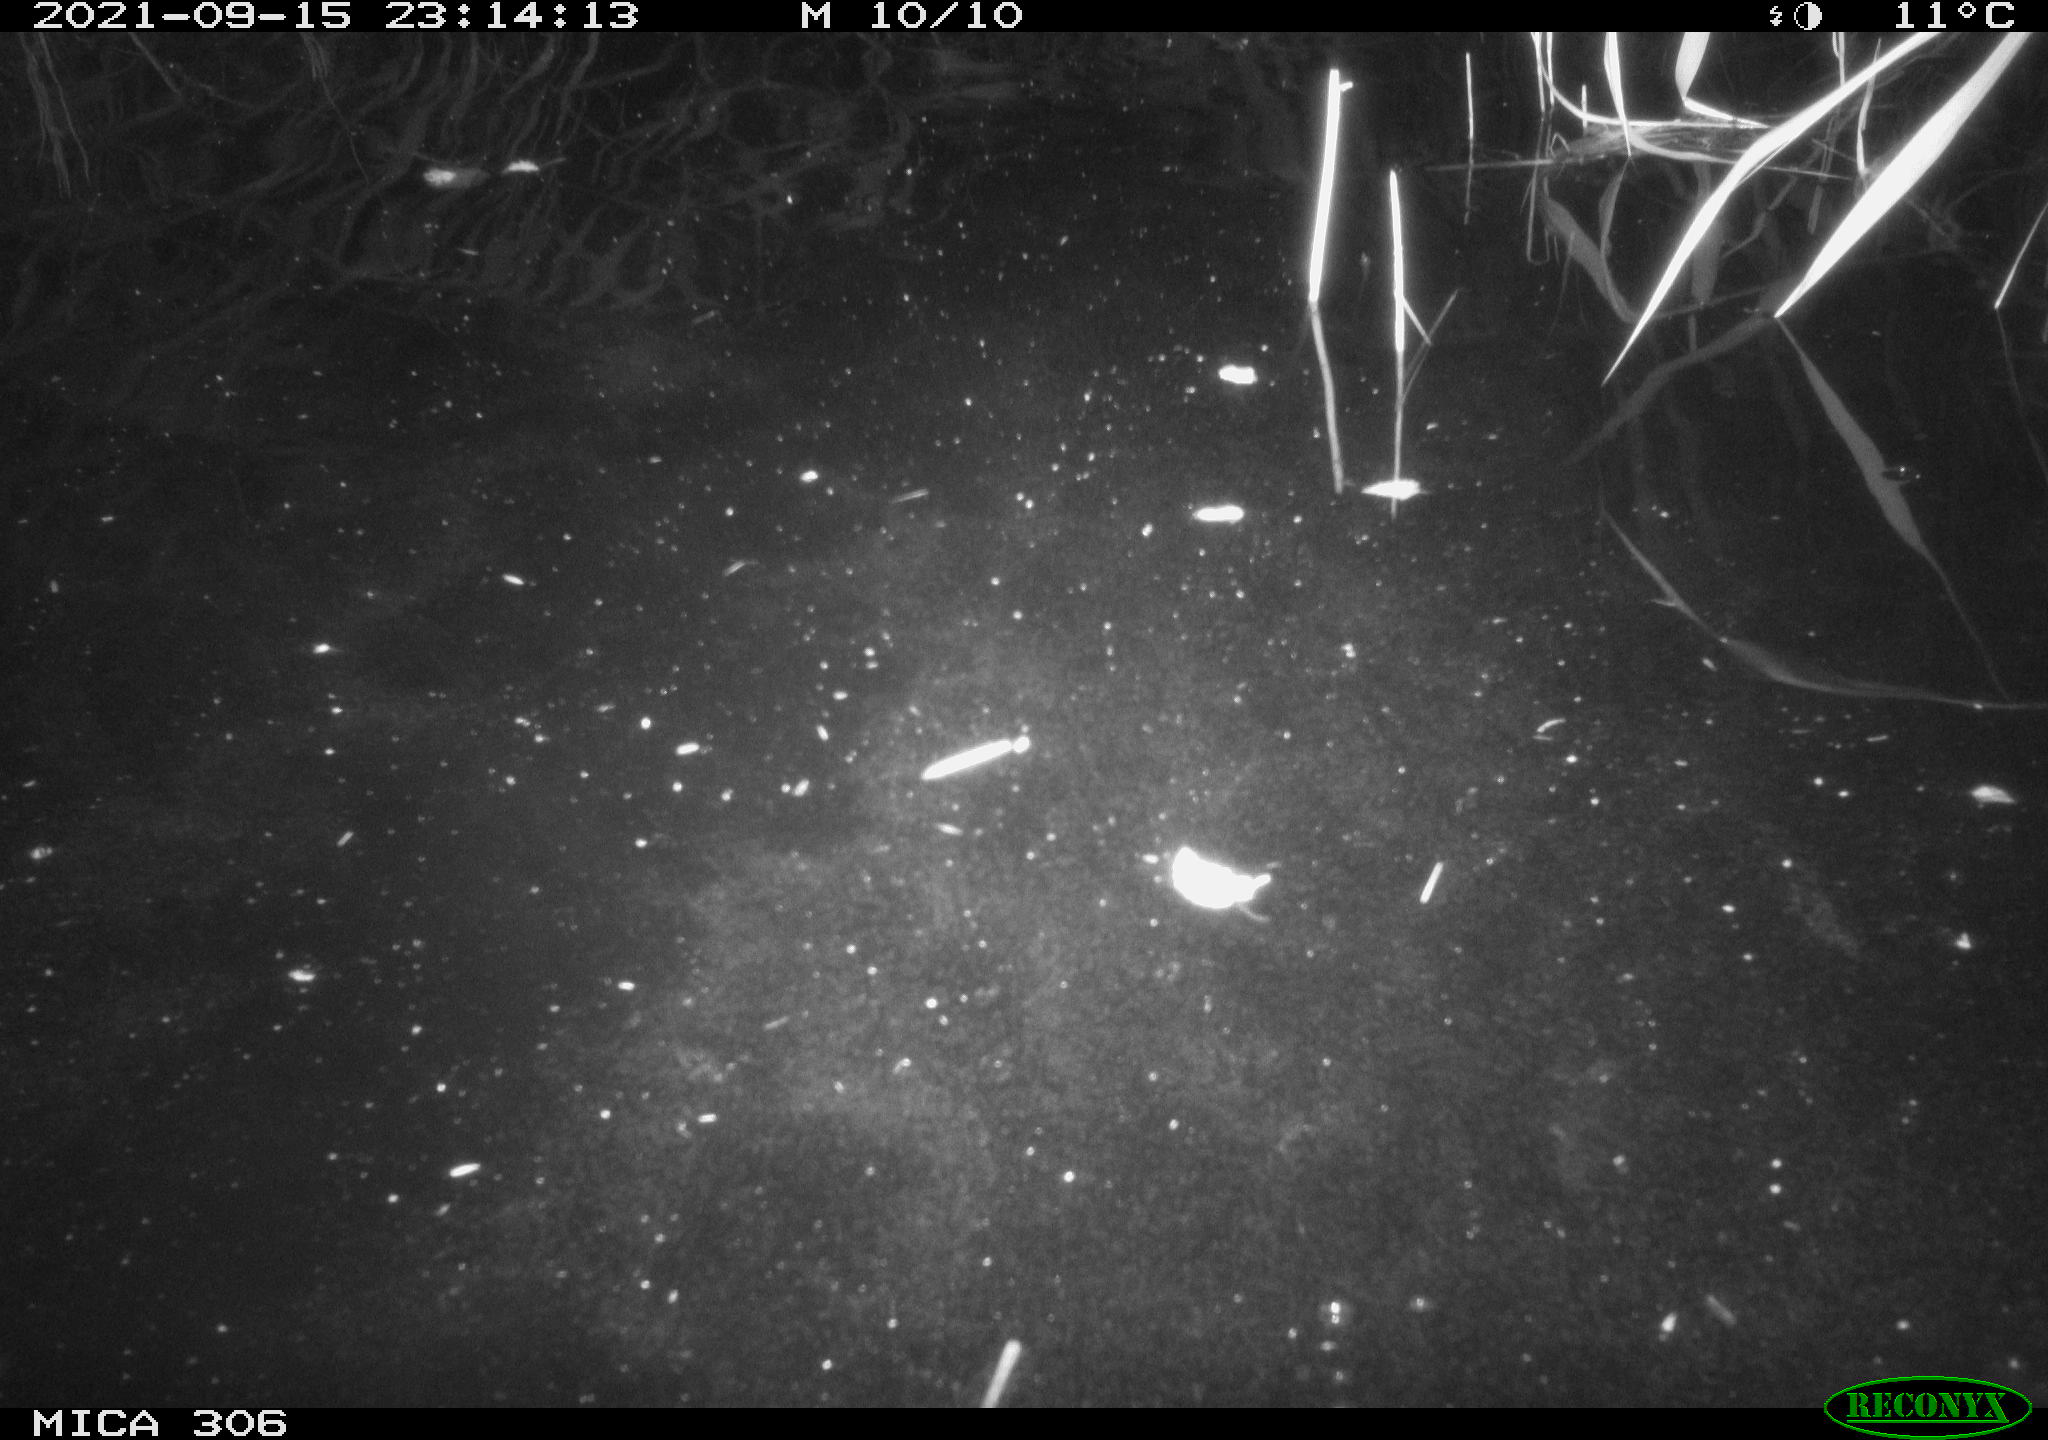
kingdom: Animalia
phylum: Chordata
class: Mammalia
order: Rodentia
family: Cricetidae
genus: Ondatra
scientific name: Ondatra zibethicus
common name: Muskrat
